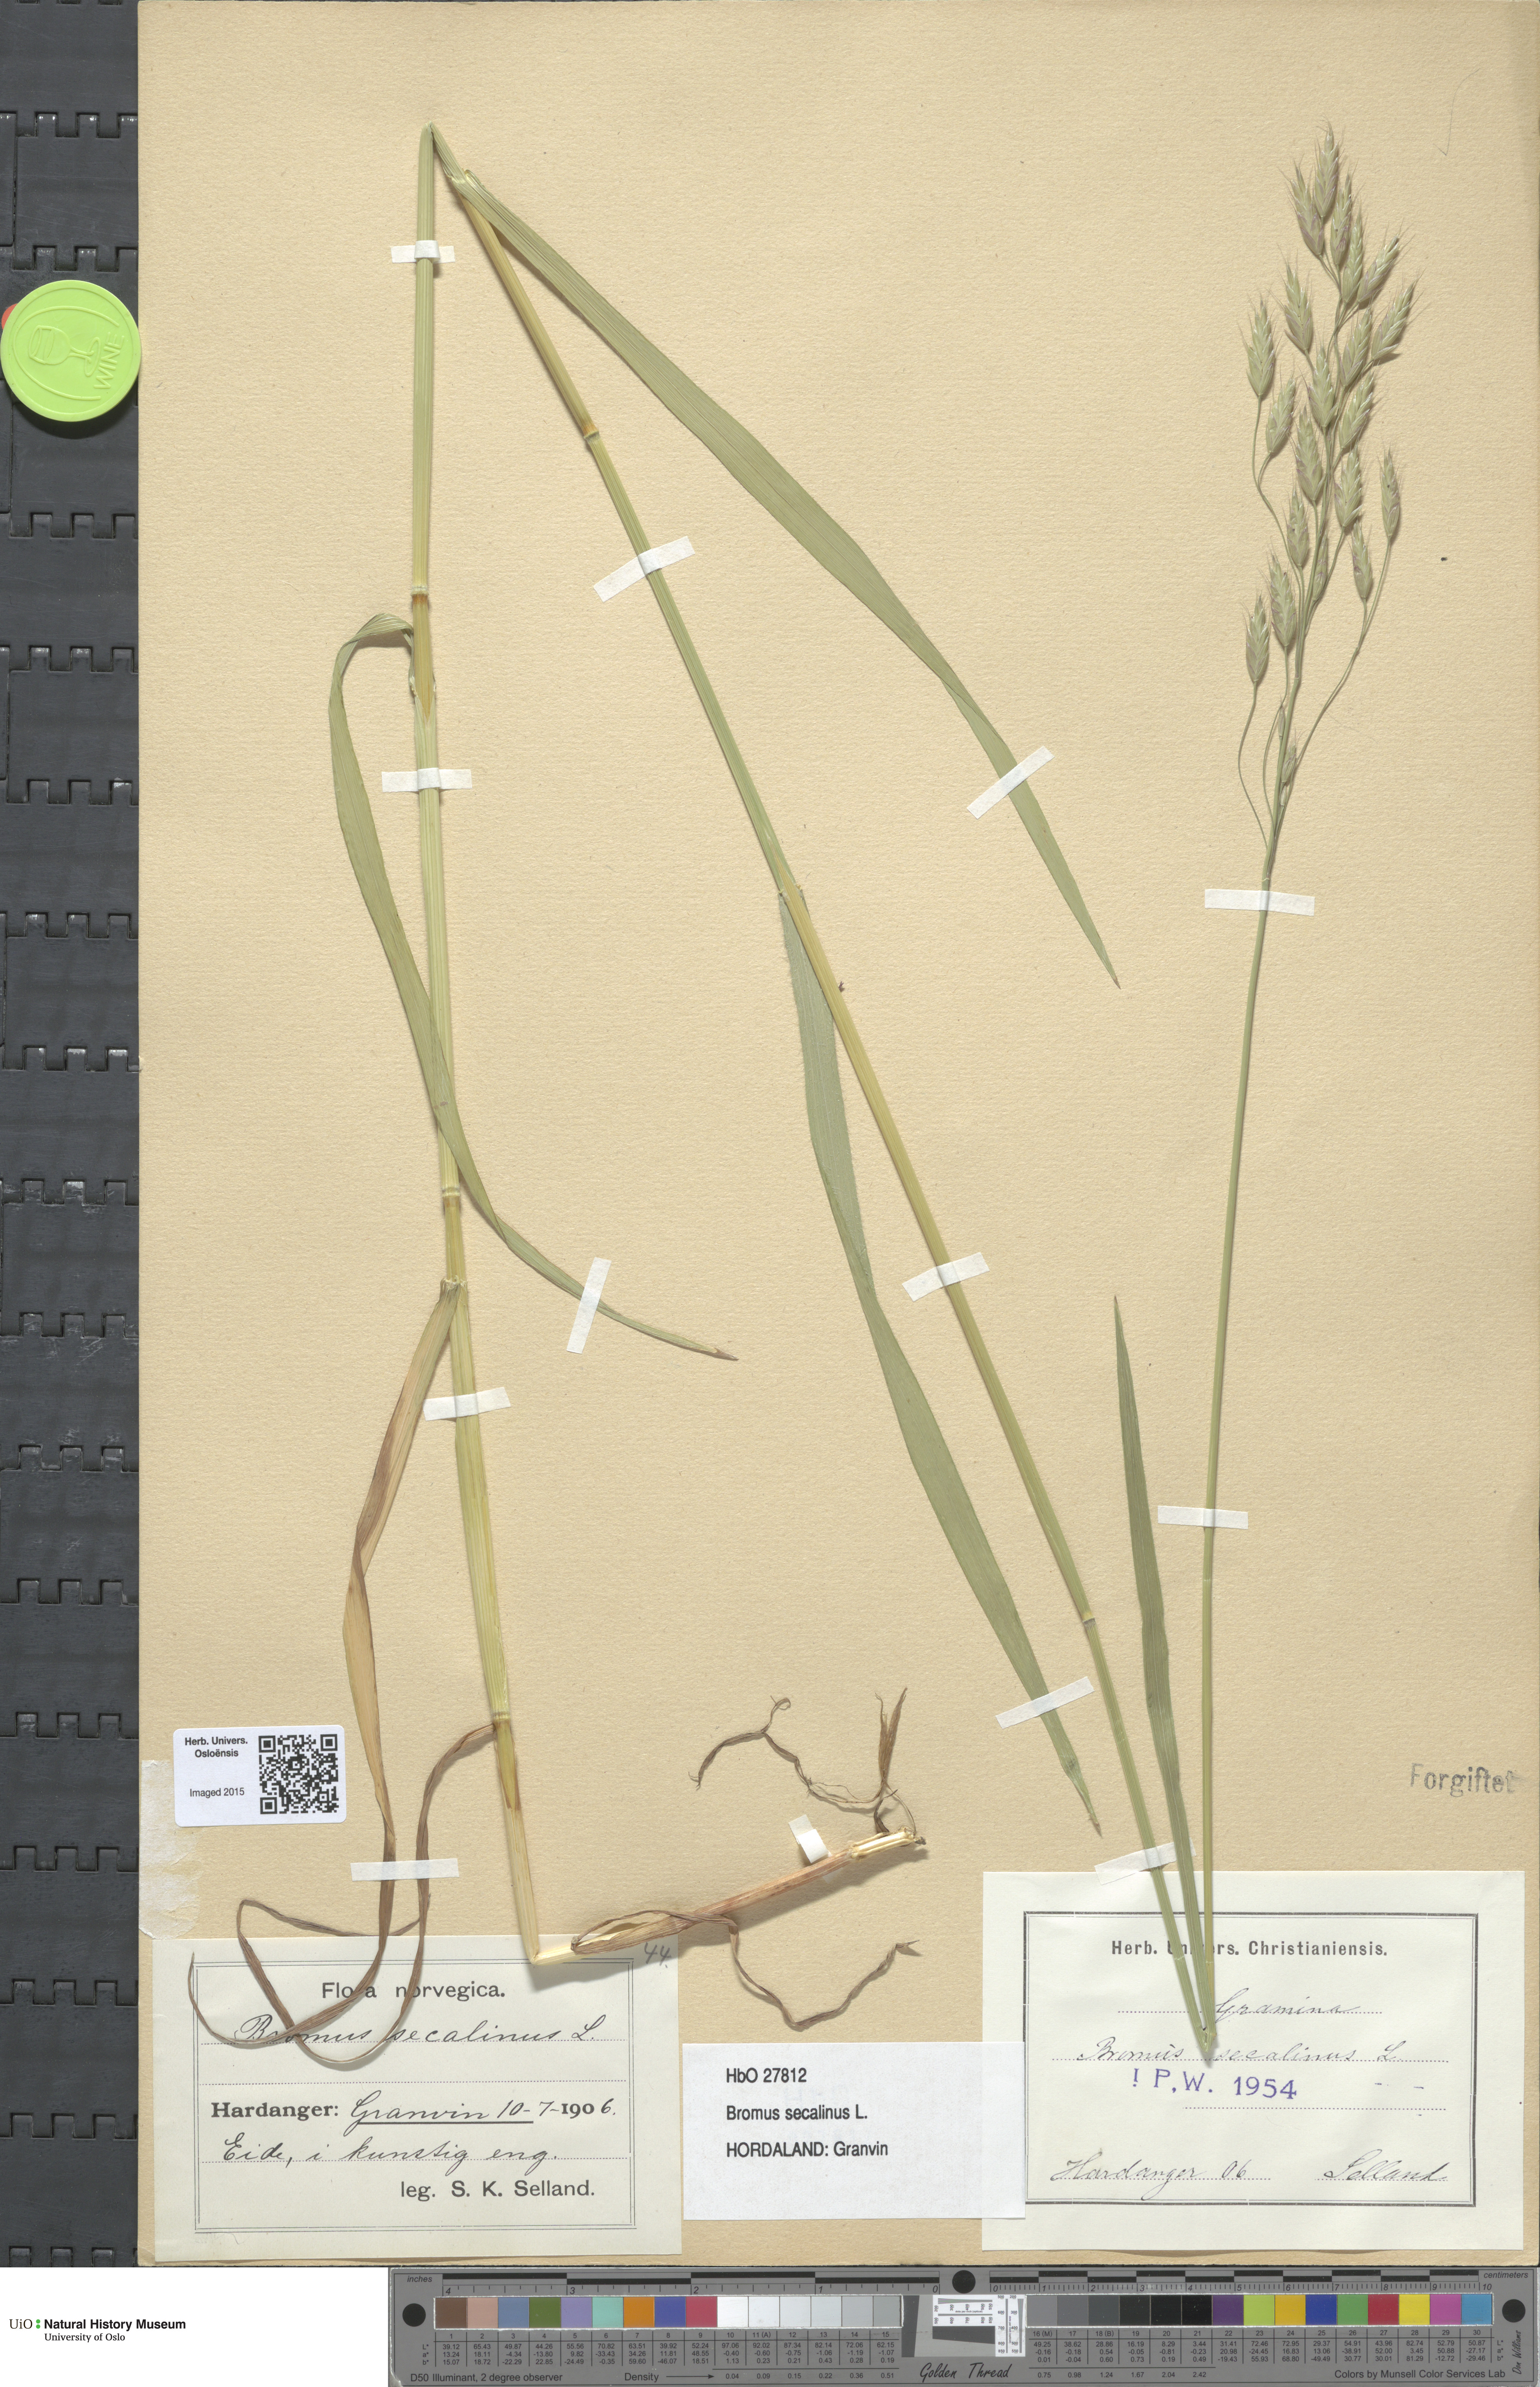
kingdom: Plantae
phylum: Tracheophyta
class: Liliopsida
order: Poales
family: Poaceae
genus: Bromus
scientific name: Bromus secalinus
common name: Rye brome
